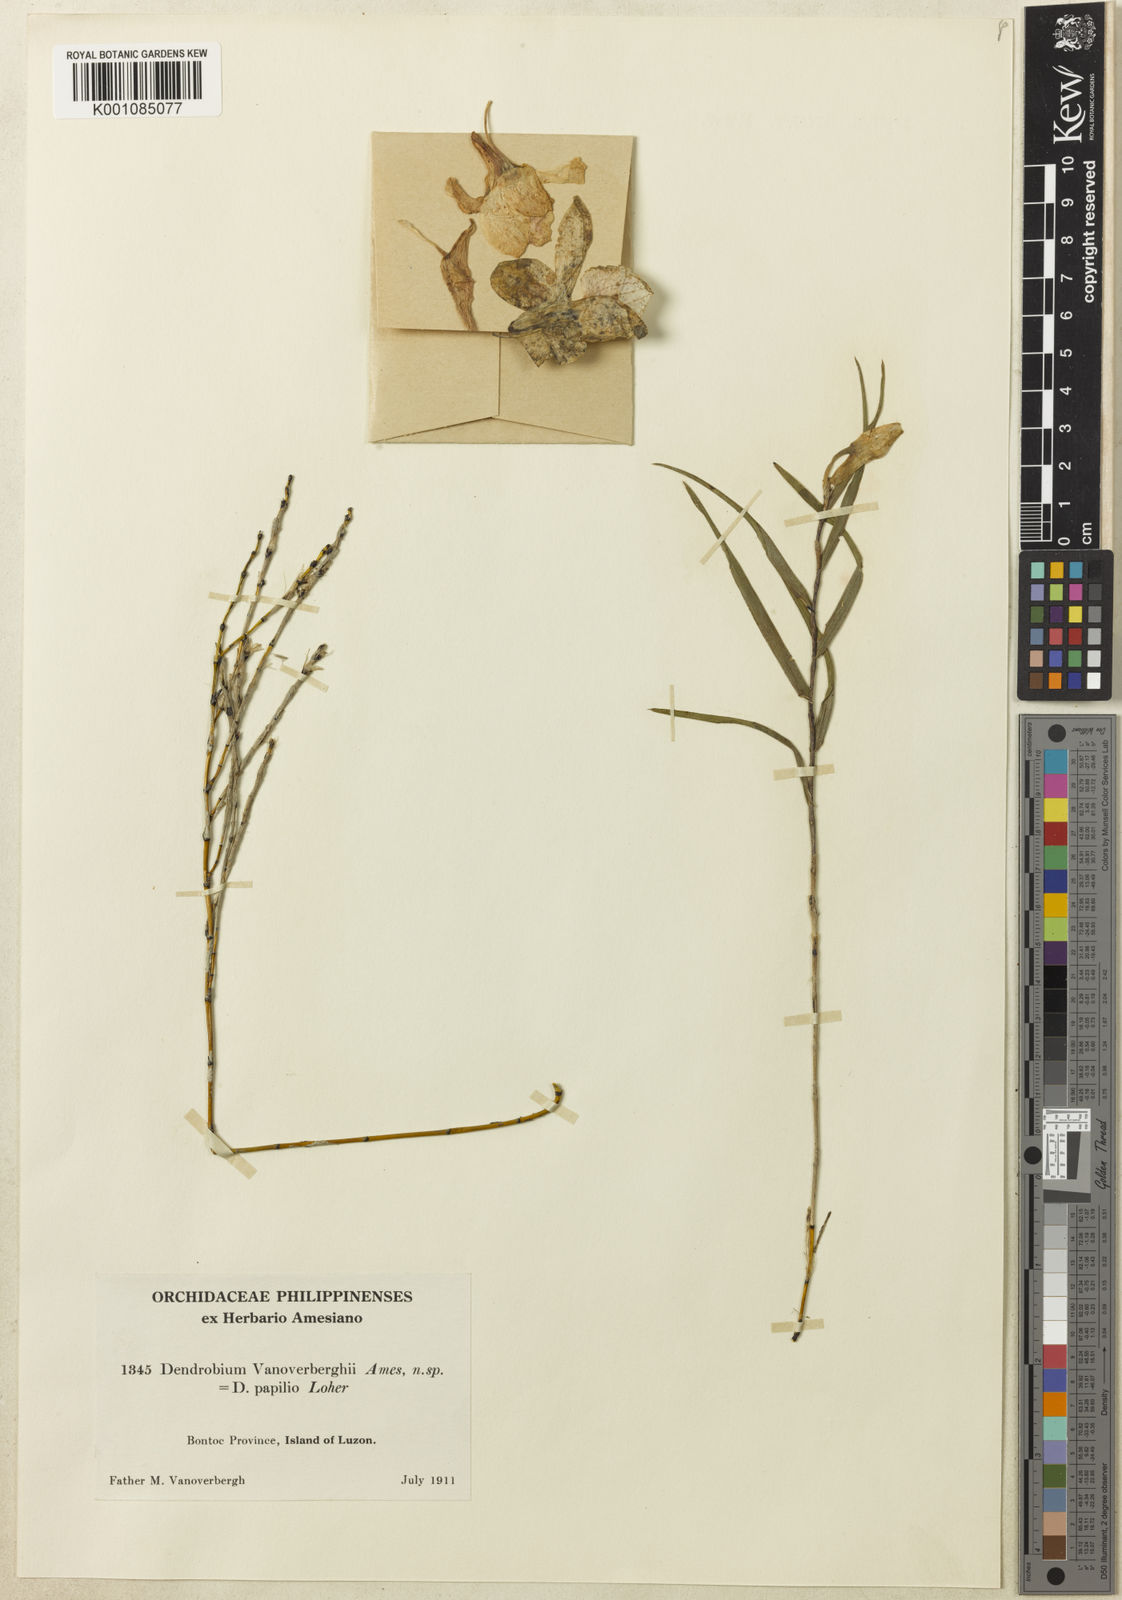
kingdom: Plantae
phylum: Tracheophyta
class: Liliopsida
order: Asparagales
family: Orchidaceae
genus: Dendrobium
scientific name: Dendrobium papilio
